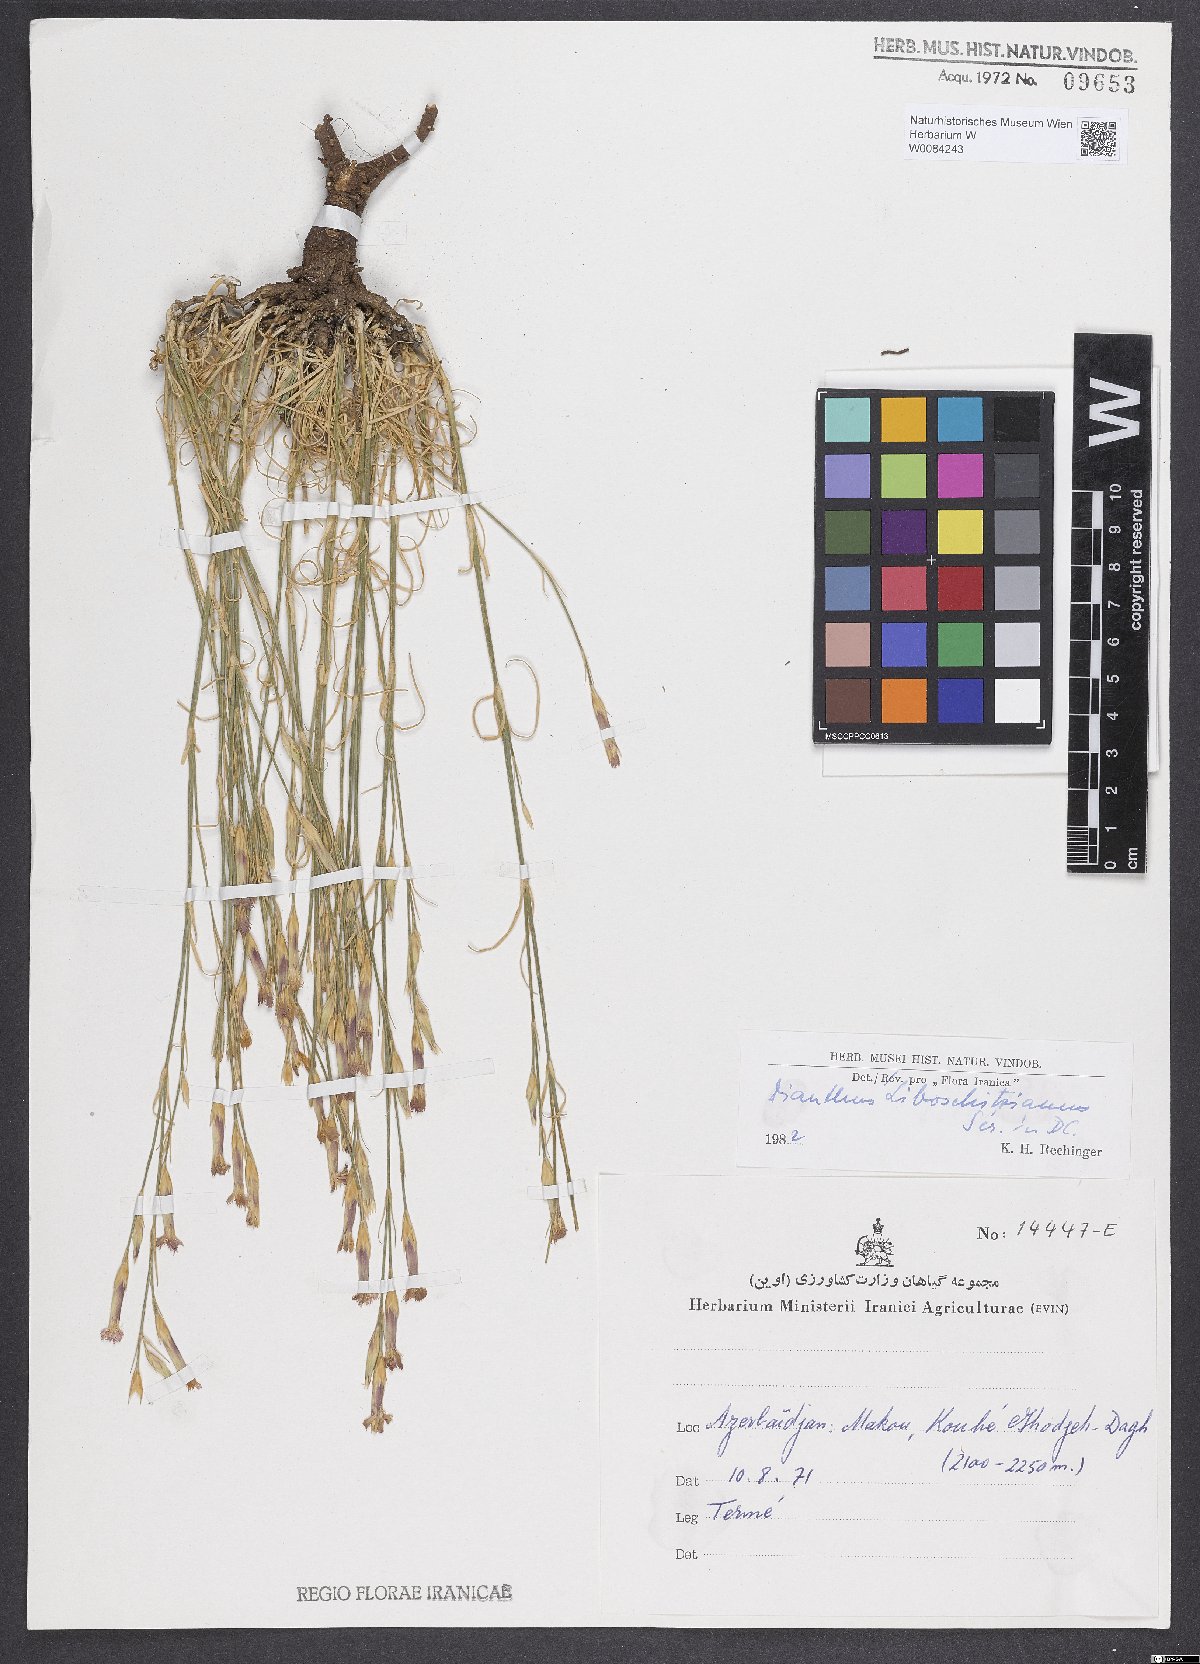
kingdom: Plantae
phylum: Tracheophyta
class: Magnoliopsida
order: Caryophyllales
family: Caryophyllaceae
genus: Dianthus
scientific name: Dianthus cretaceus
